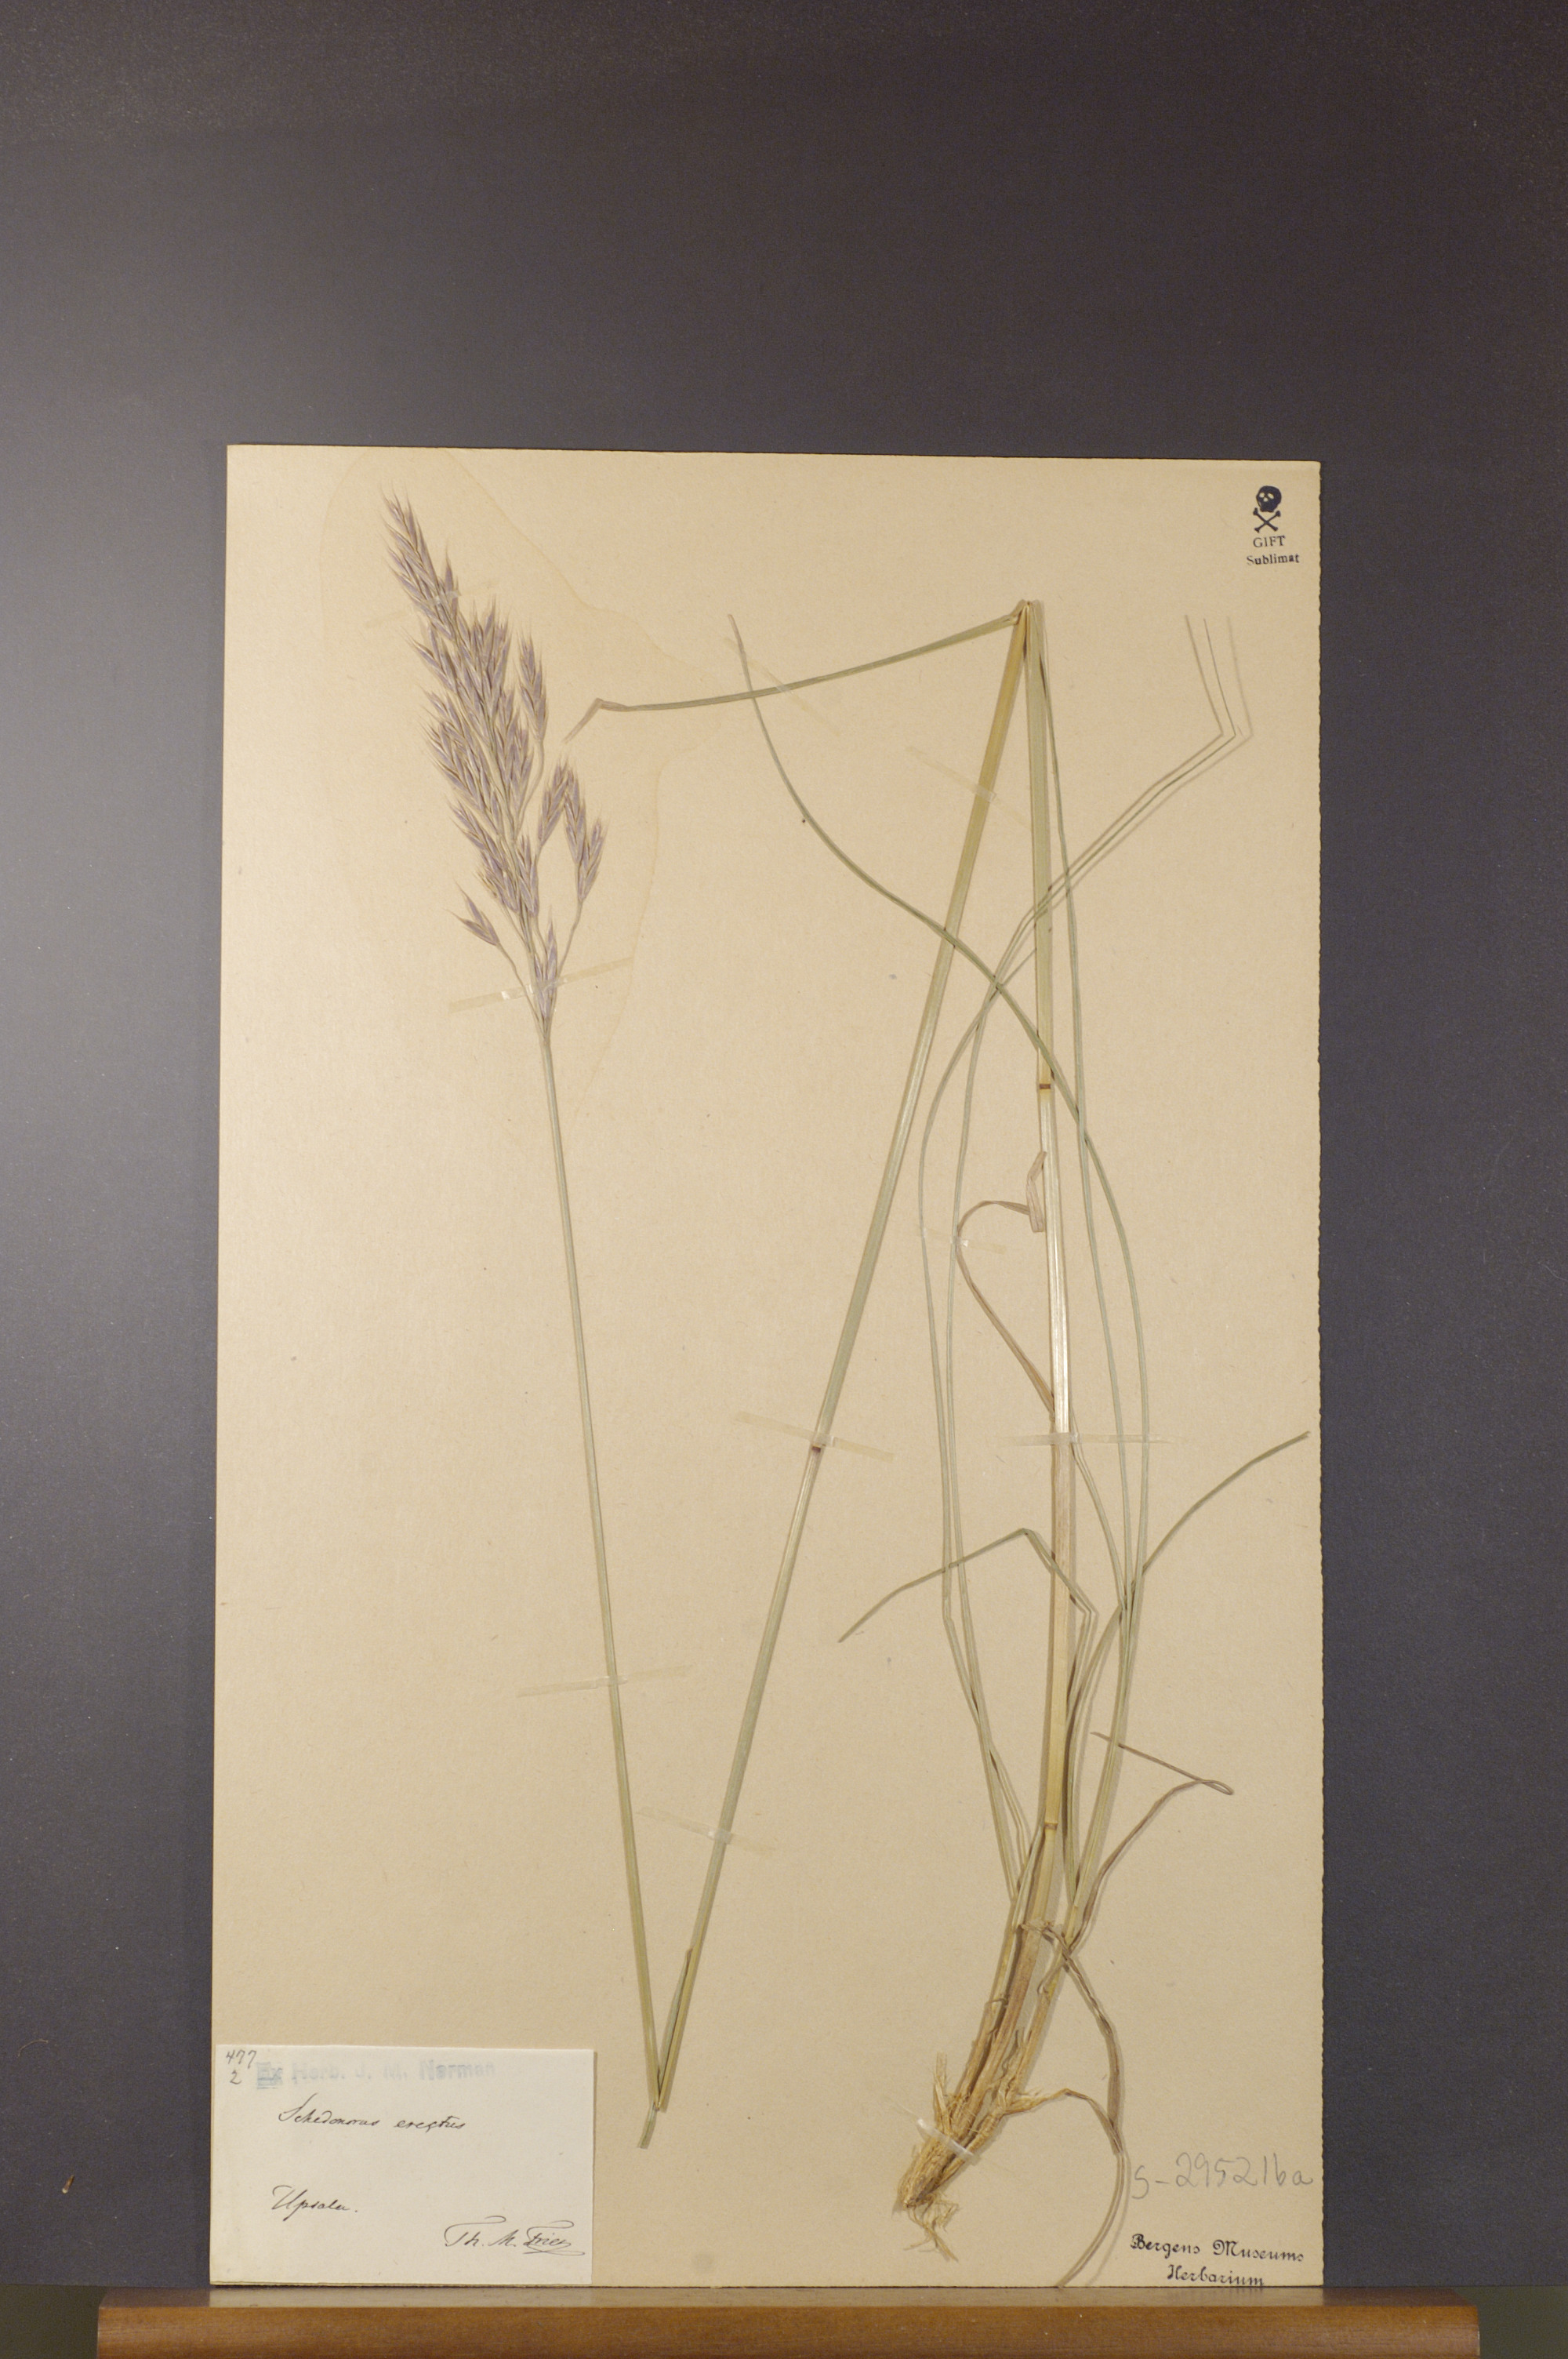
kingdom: Plantae
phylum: Tracheophyta
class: Liliopsida
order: Poales
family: Poaceae
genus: Bromus
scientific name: Bromus erectus
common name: Erect brome
